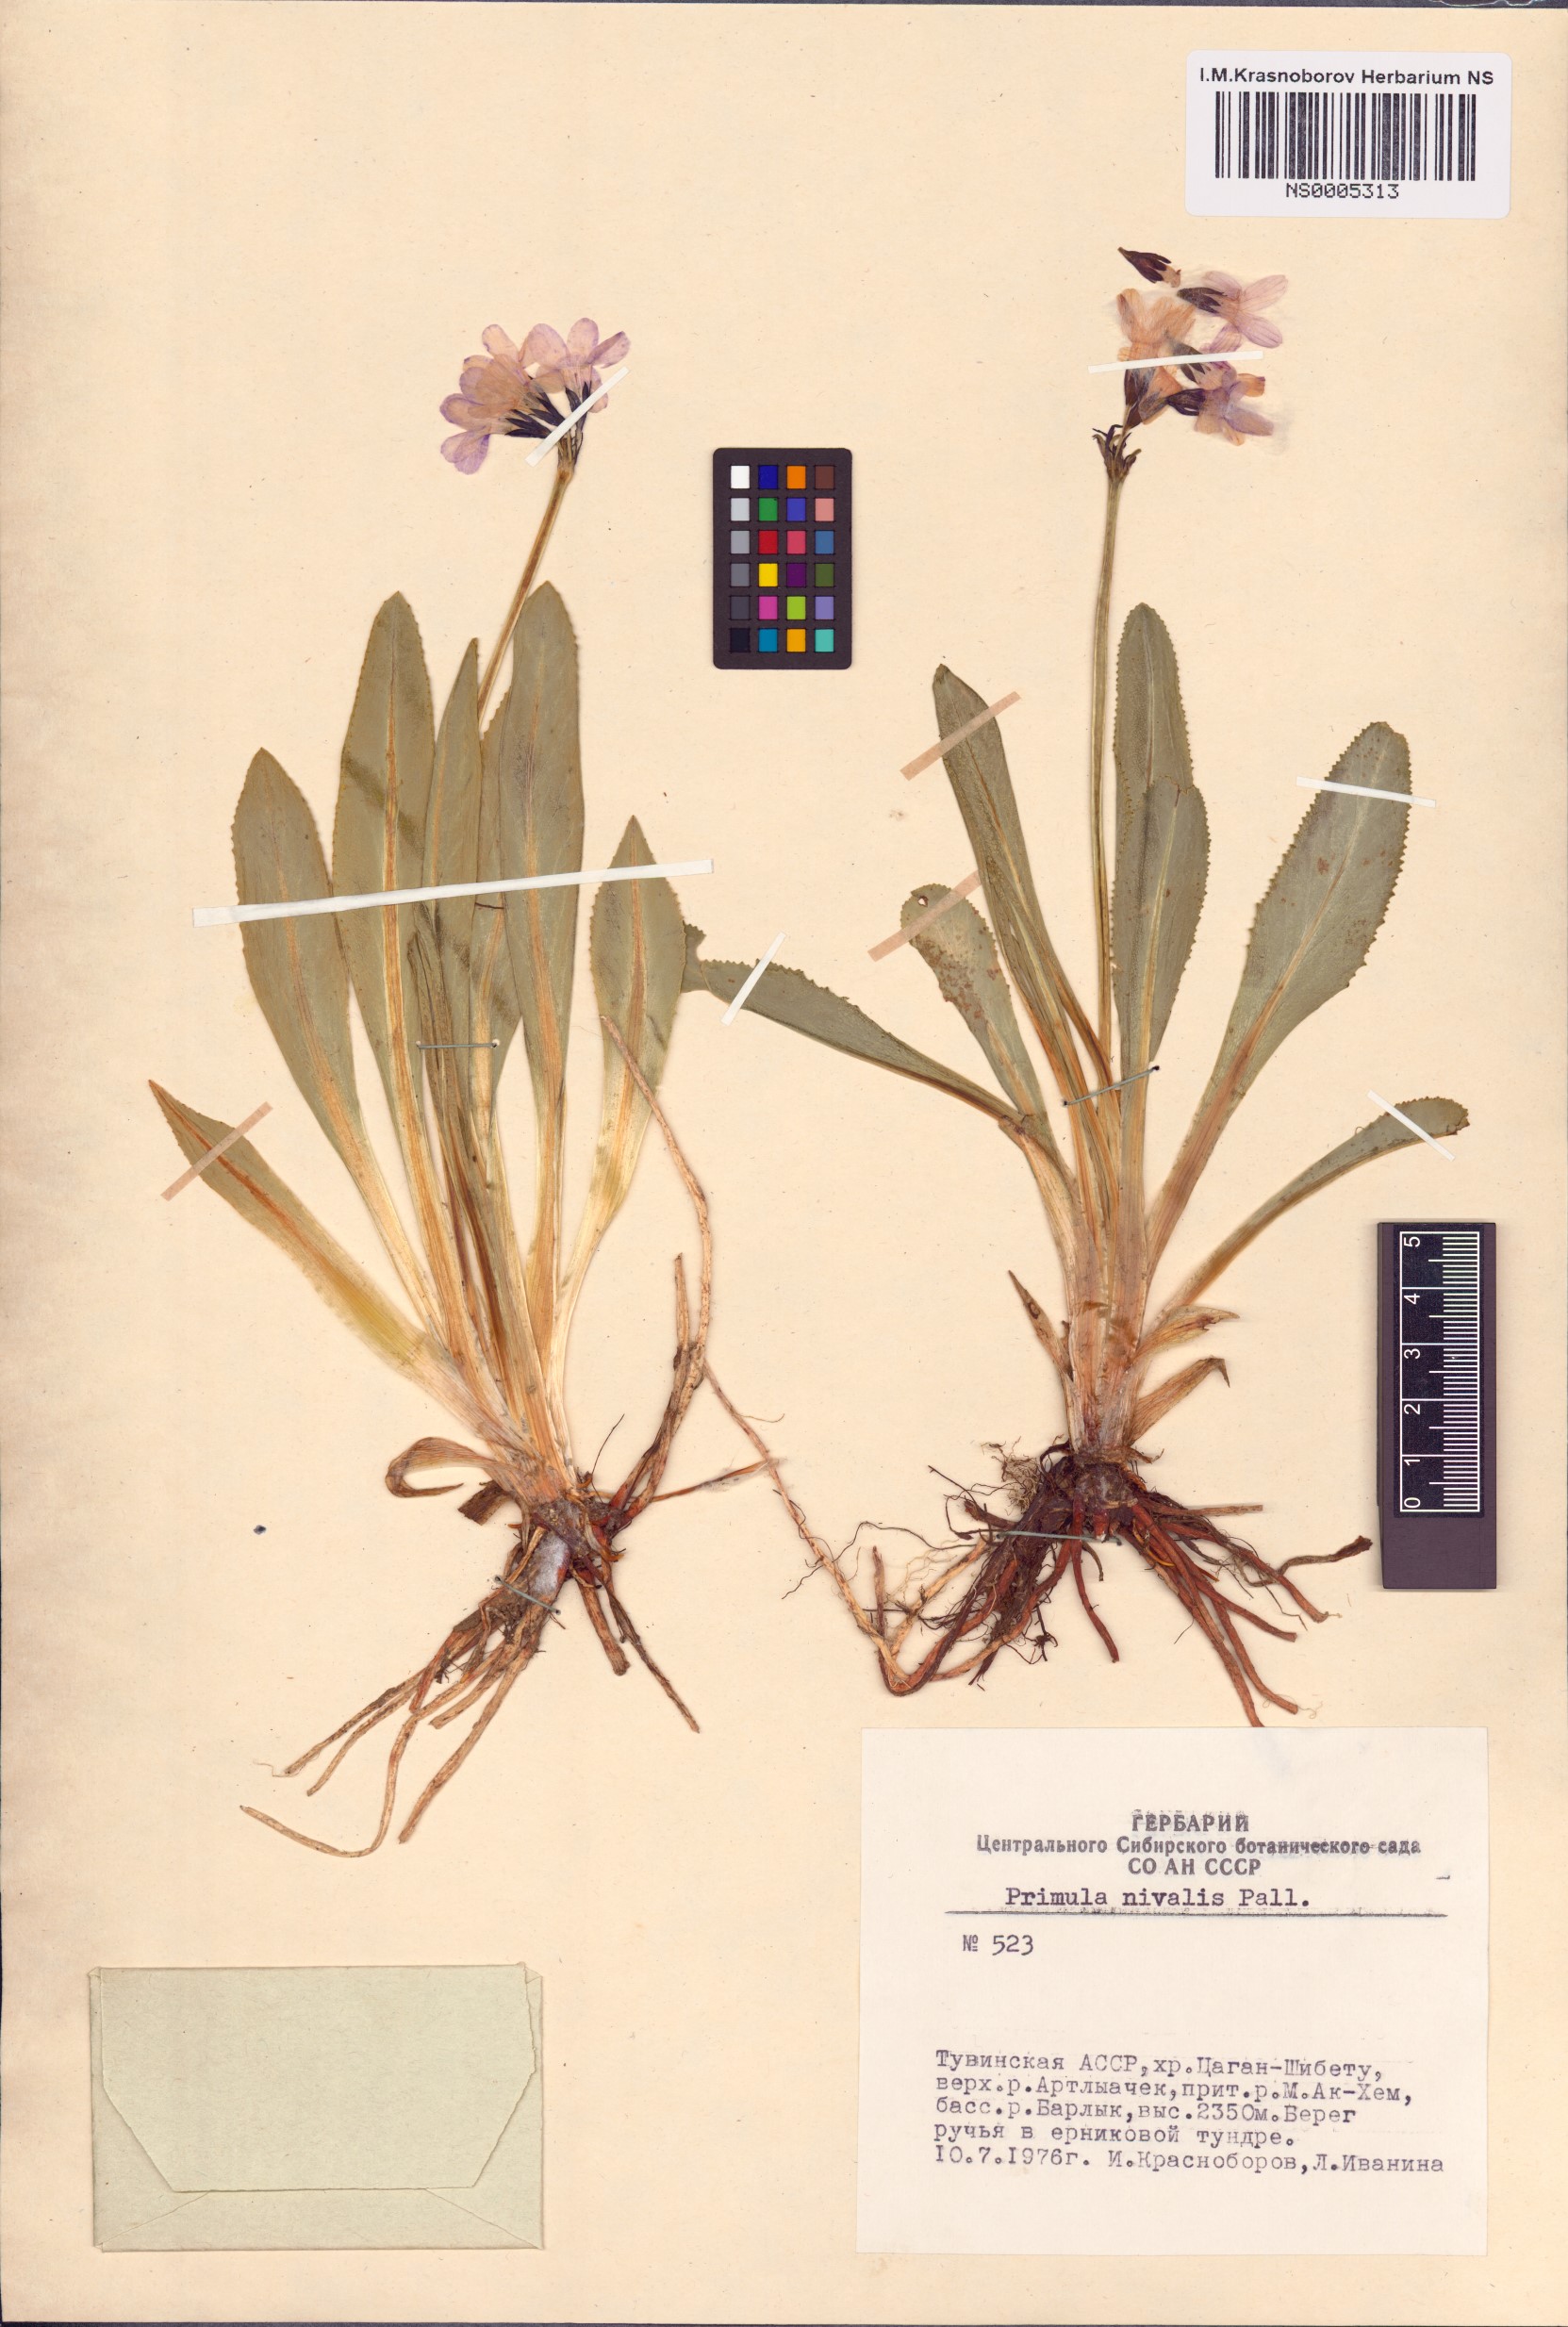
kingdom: Plantae
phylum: Tracheophyta
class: Magnoliopsida
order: Ericales
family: Primulaceae
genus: Primula
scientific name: Primula nivalis
